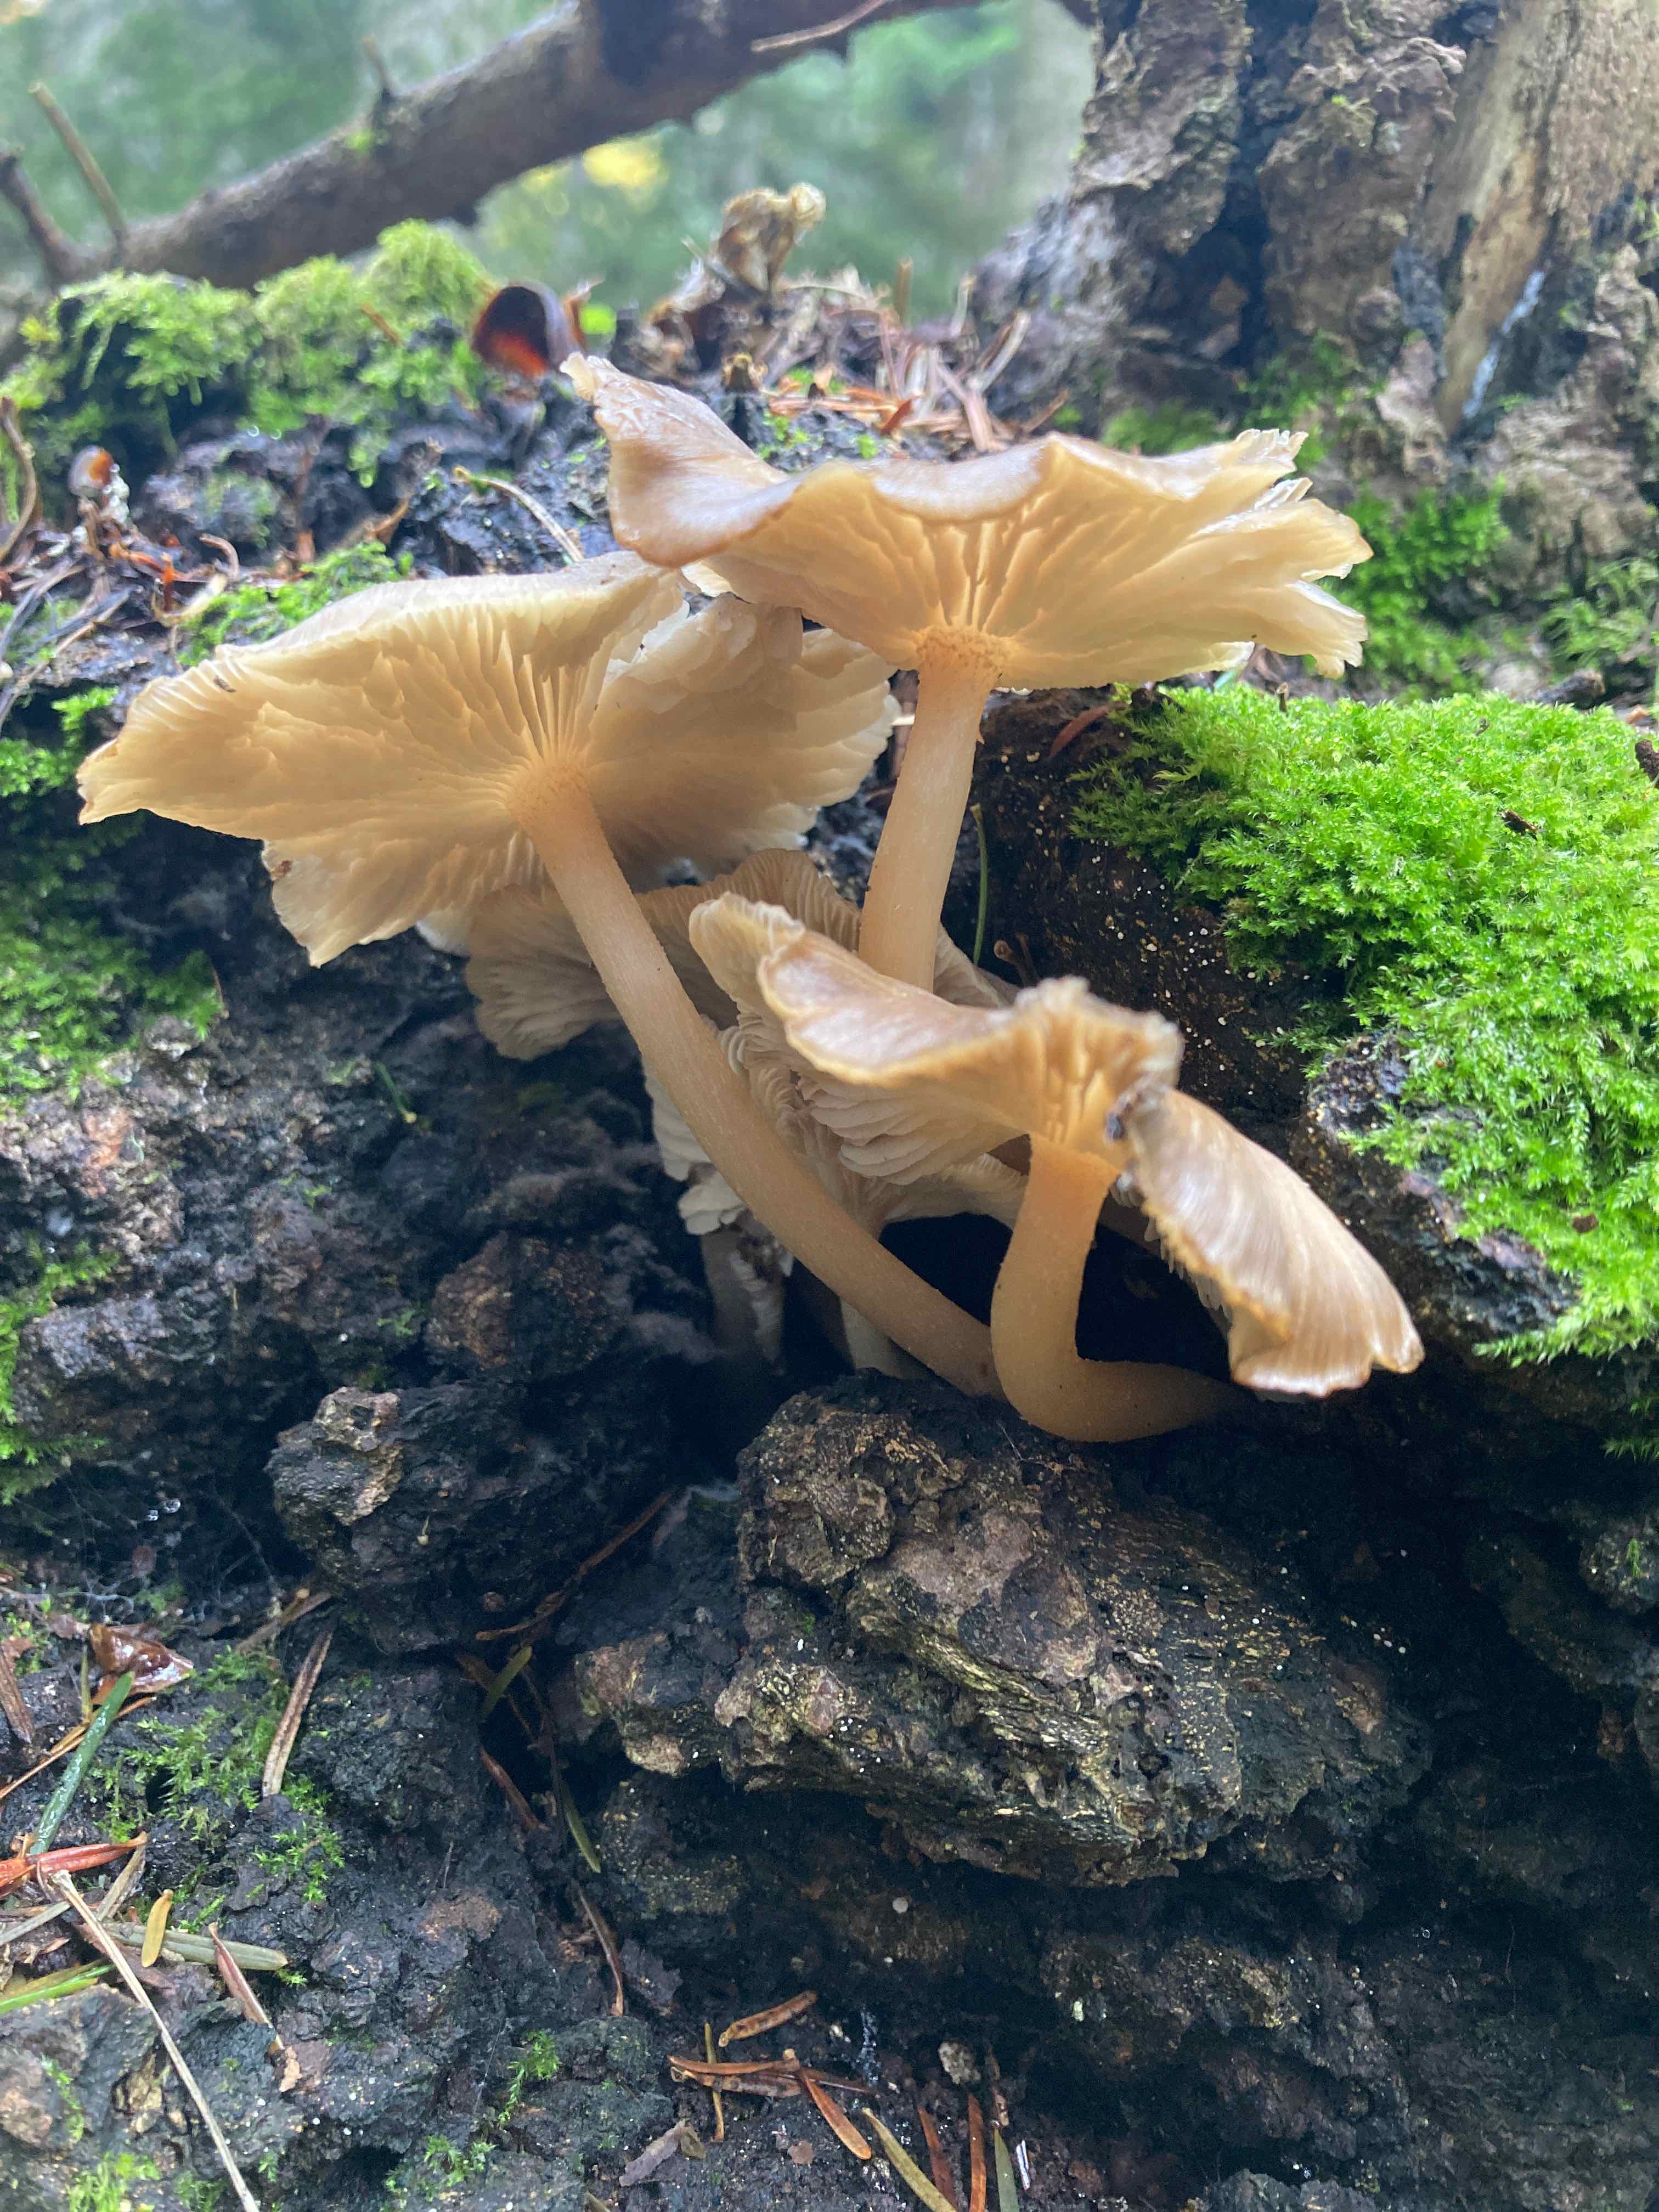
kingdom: Fungi
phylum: Basidiomycota
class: Agaricomycetes
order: Agaricales
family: Marasmiaceae
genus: Clitocybula
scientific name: Clitocybula lacerata
